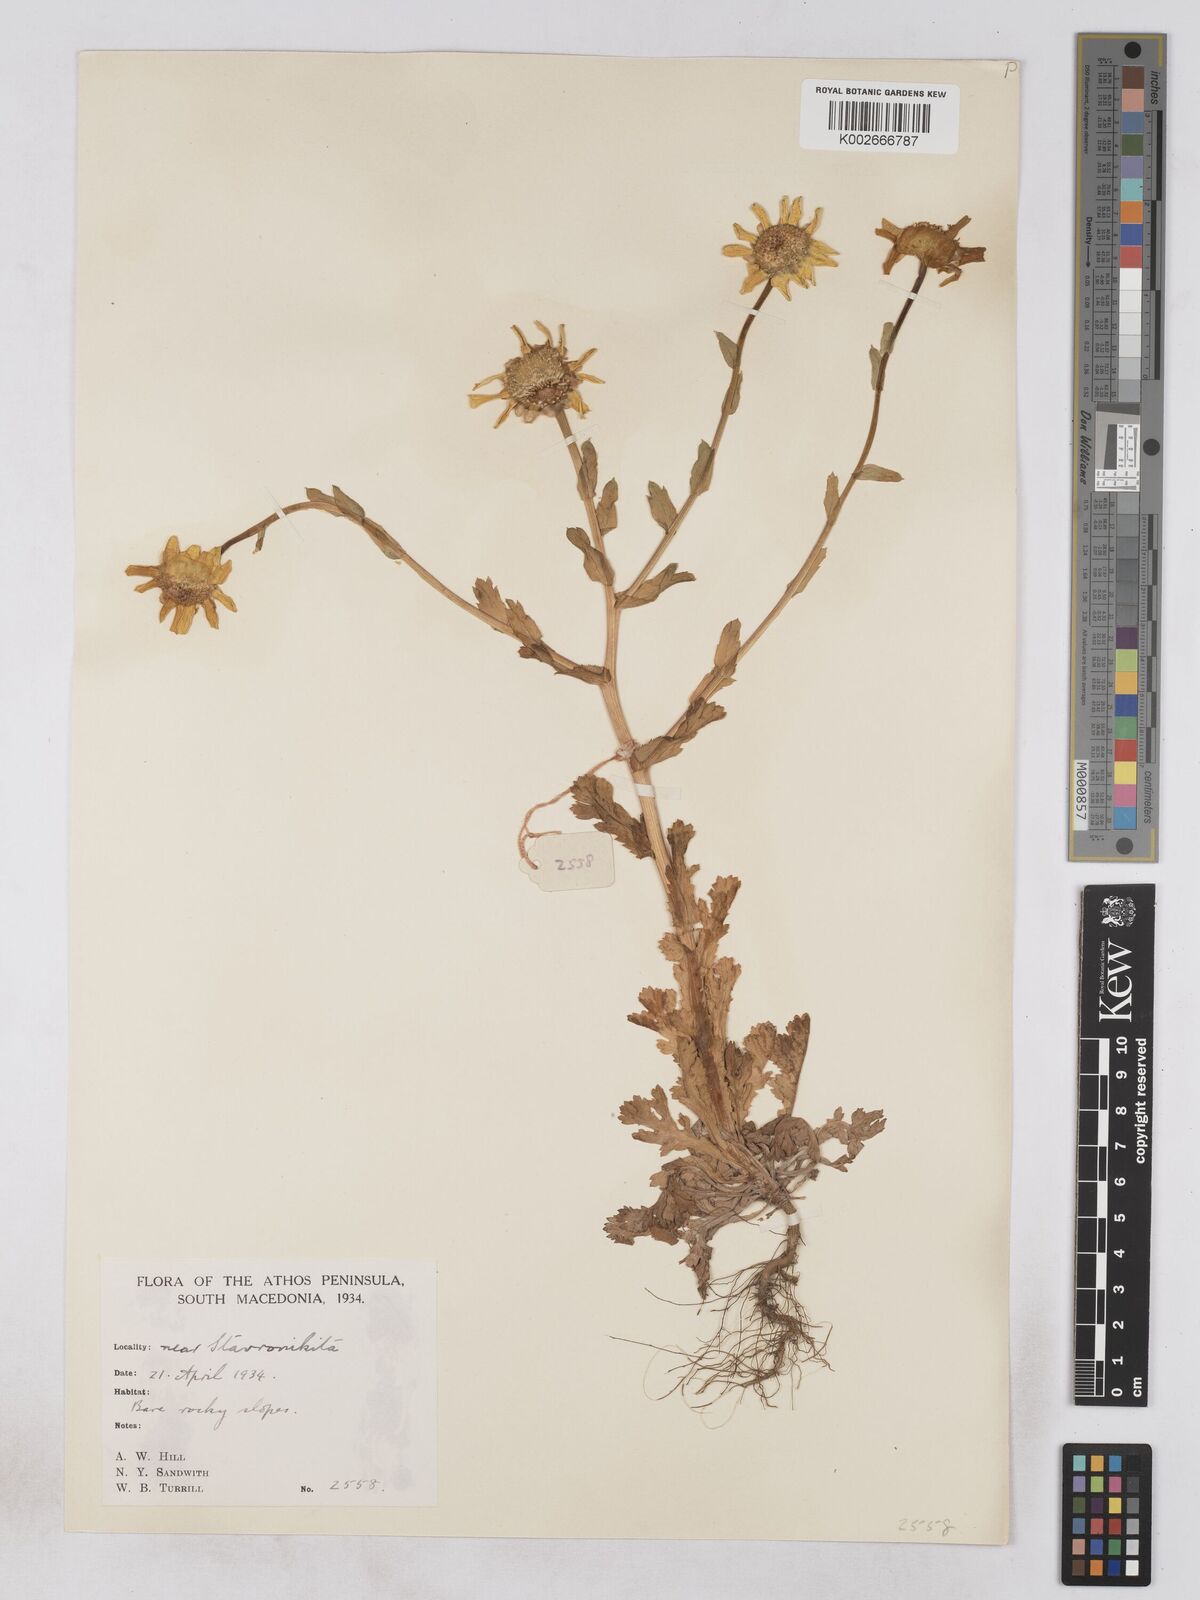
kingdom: Plantae
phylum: Tracheophyta
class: Magnoliopsida
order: Asterales
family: Asteraceae
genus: Glebionis
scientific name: Glebionis segetum
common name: Corndaisy
